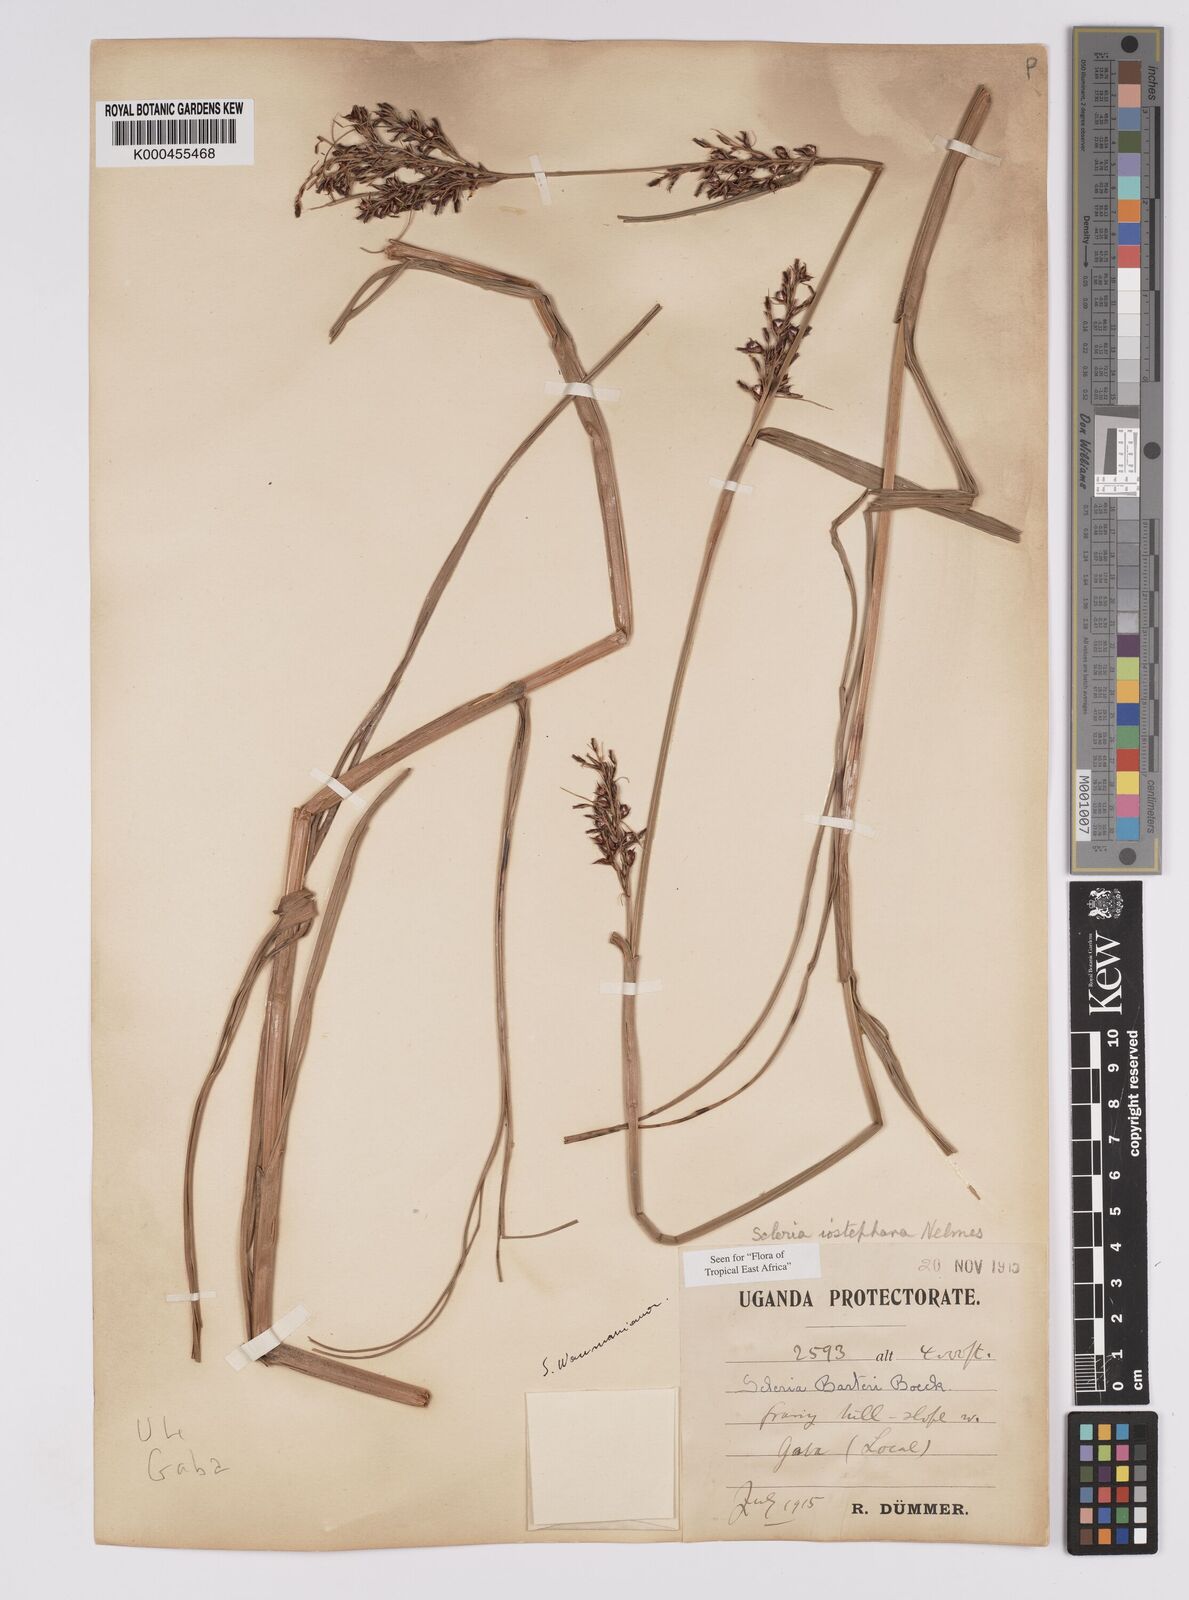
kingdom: Plantae
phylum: Tracheophyta
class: Liliopsida
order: Poales
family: Cyperaceae
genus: Scleria
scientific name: Scleria iostephana
